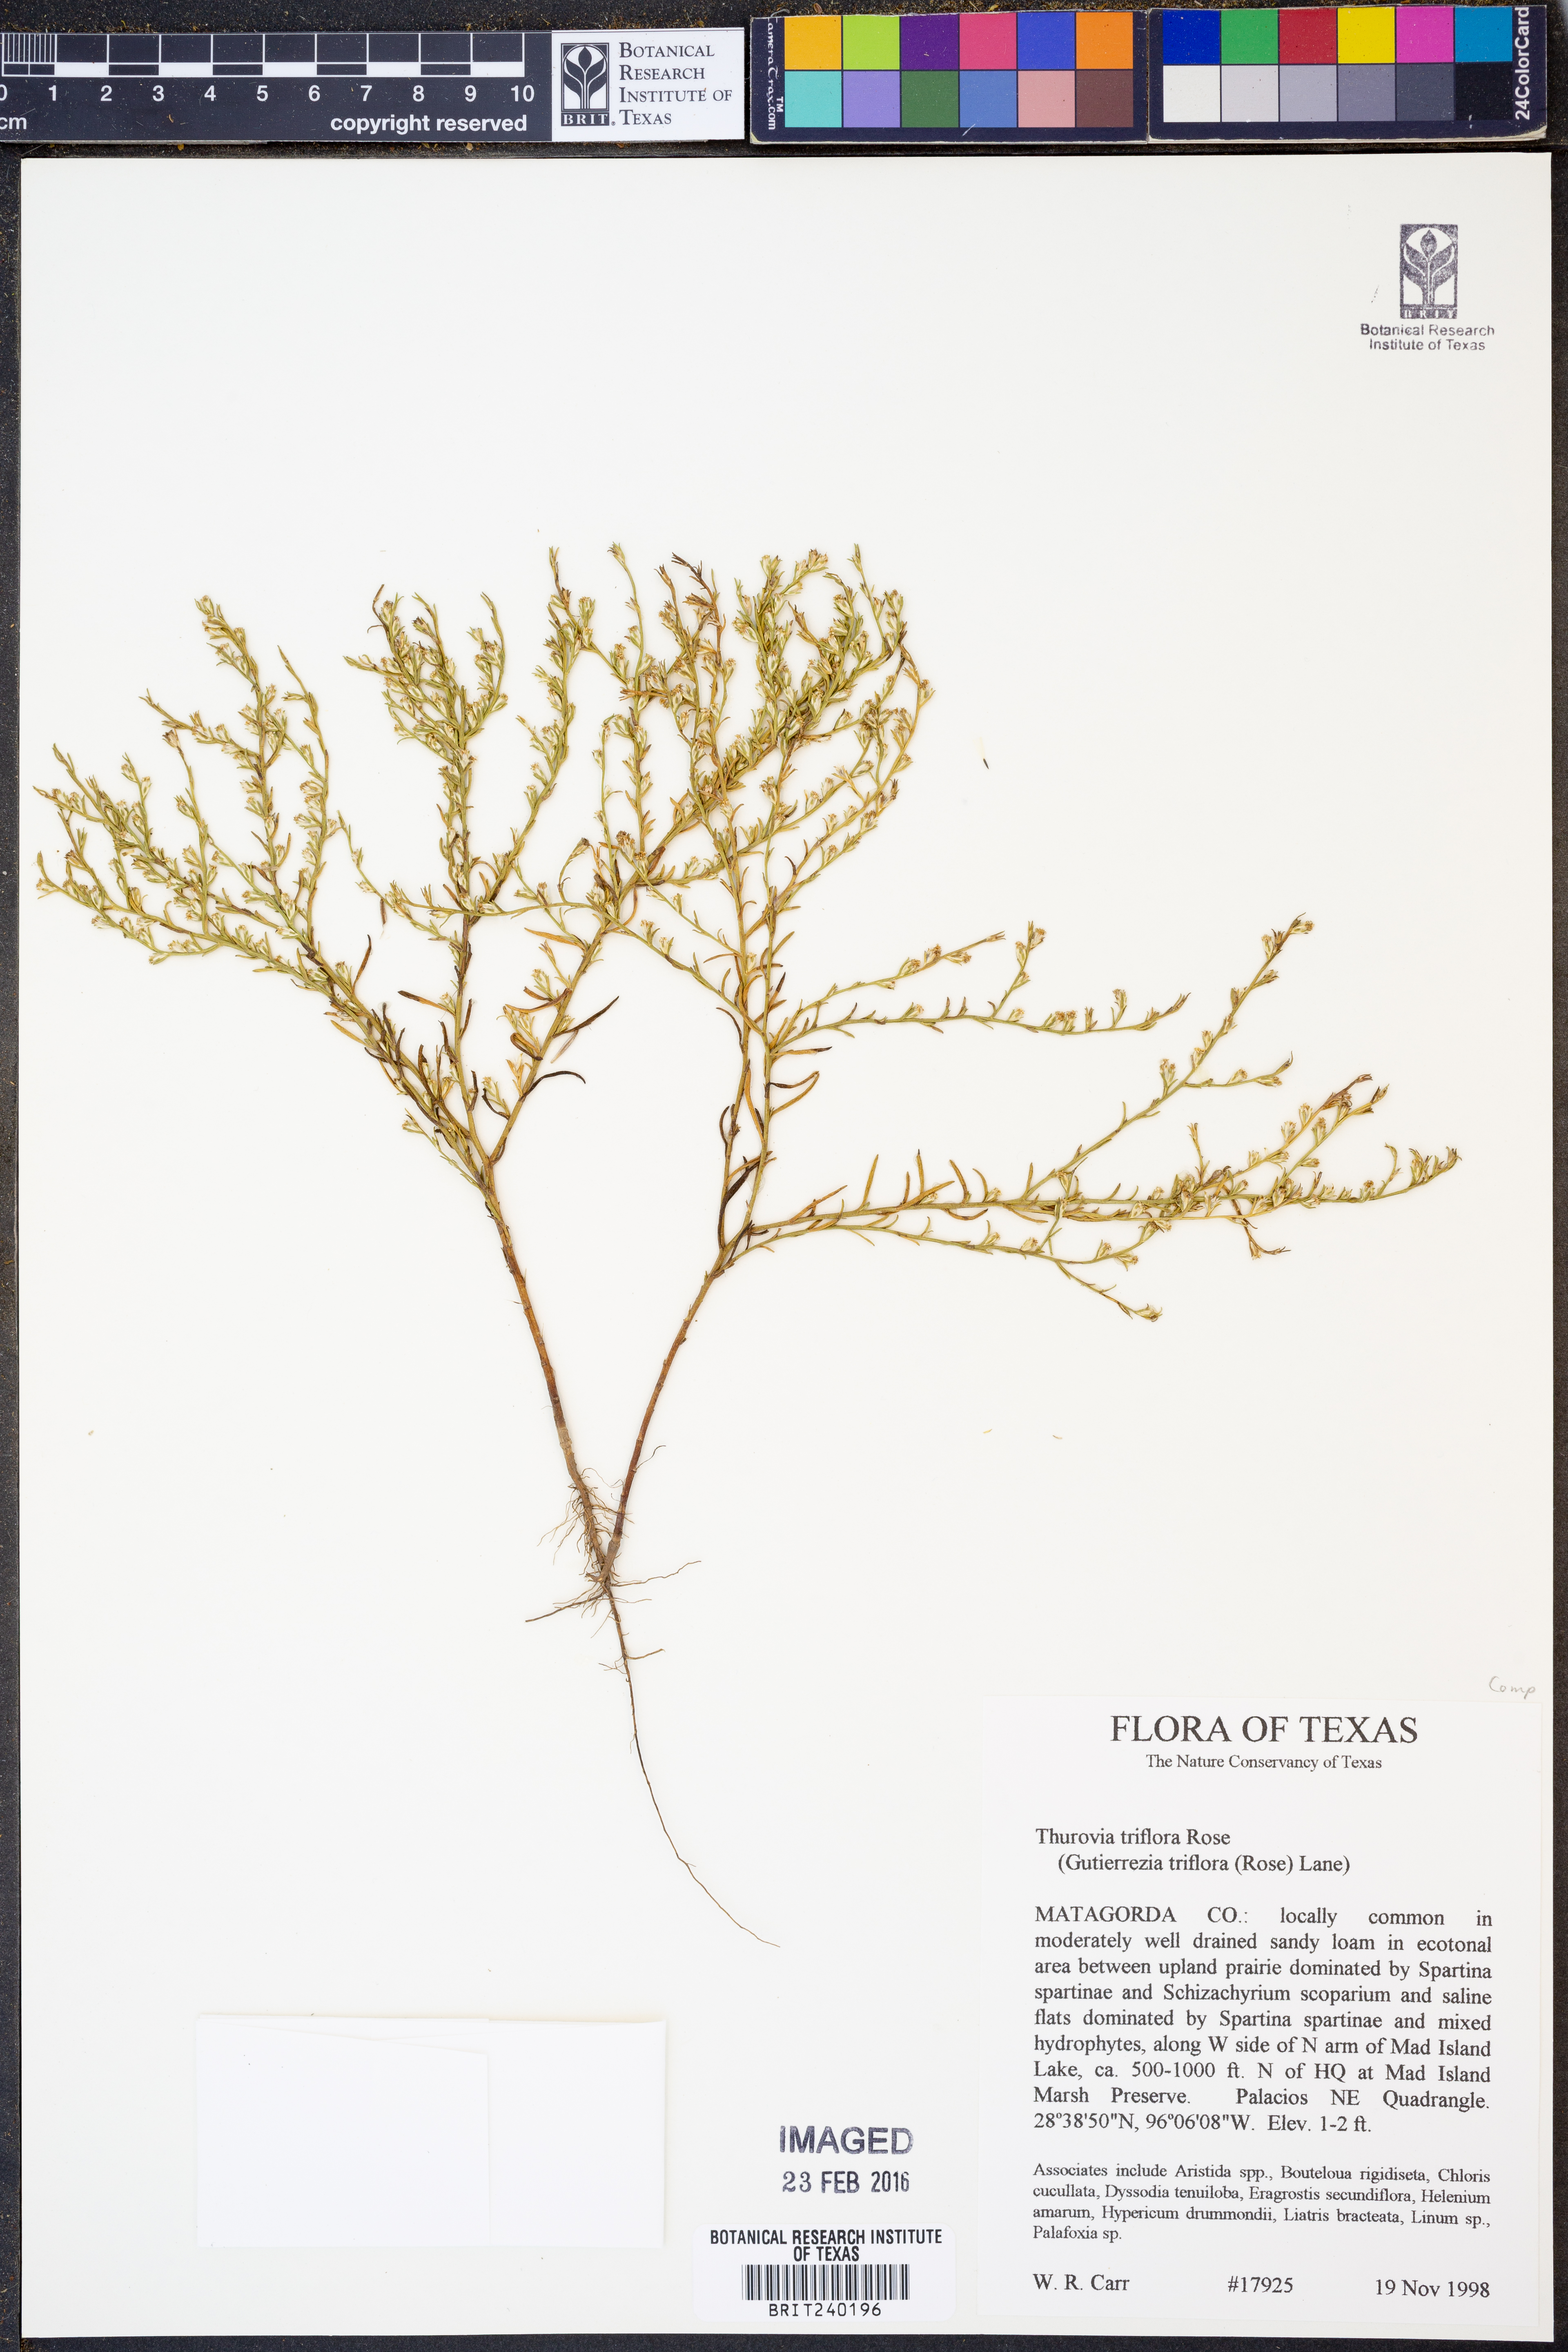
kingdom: Plantae
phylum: Tracheophyta
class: Magnoliopsida
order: Asterales
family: Asteraceae
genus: Thurovia
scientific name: Thurovia triflora
